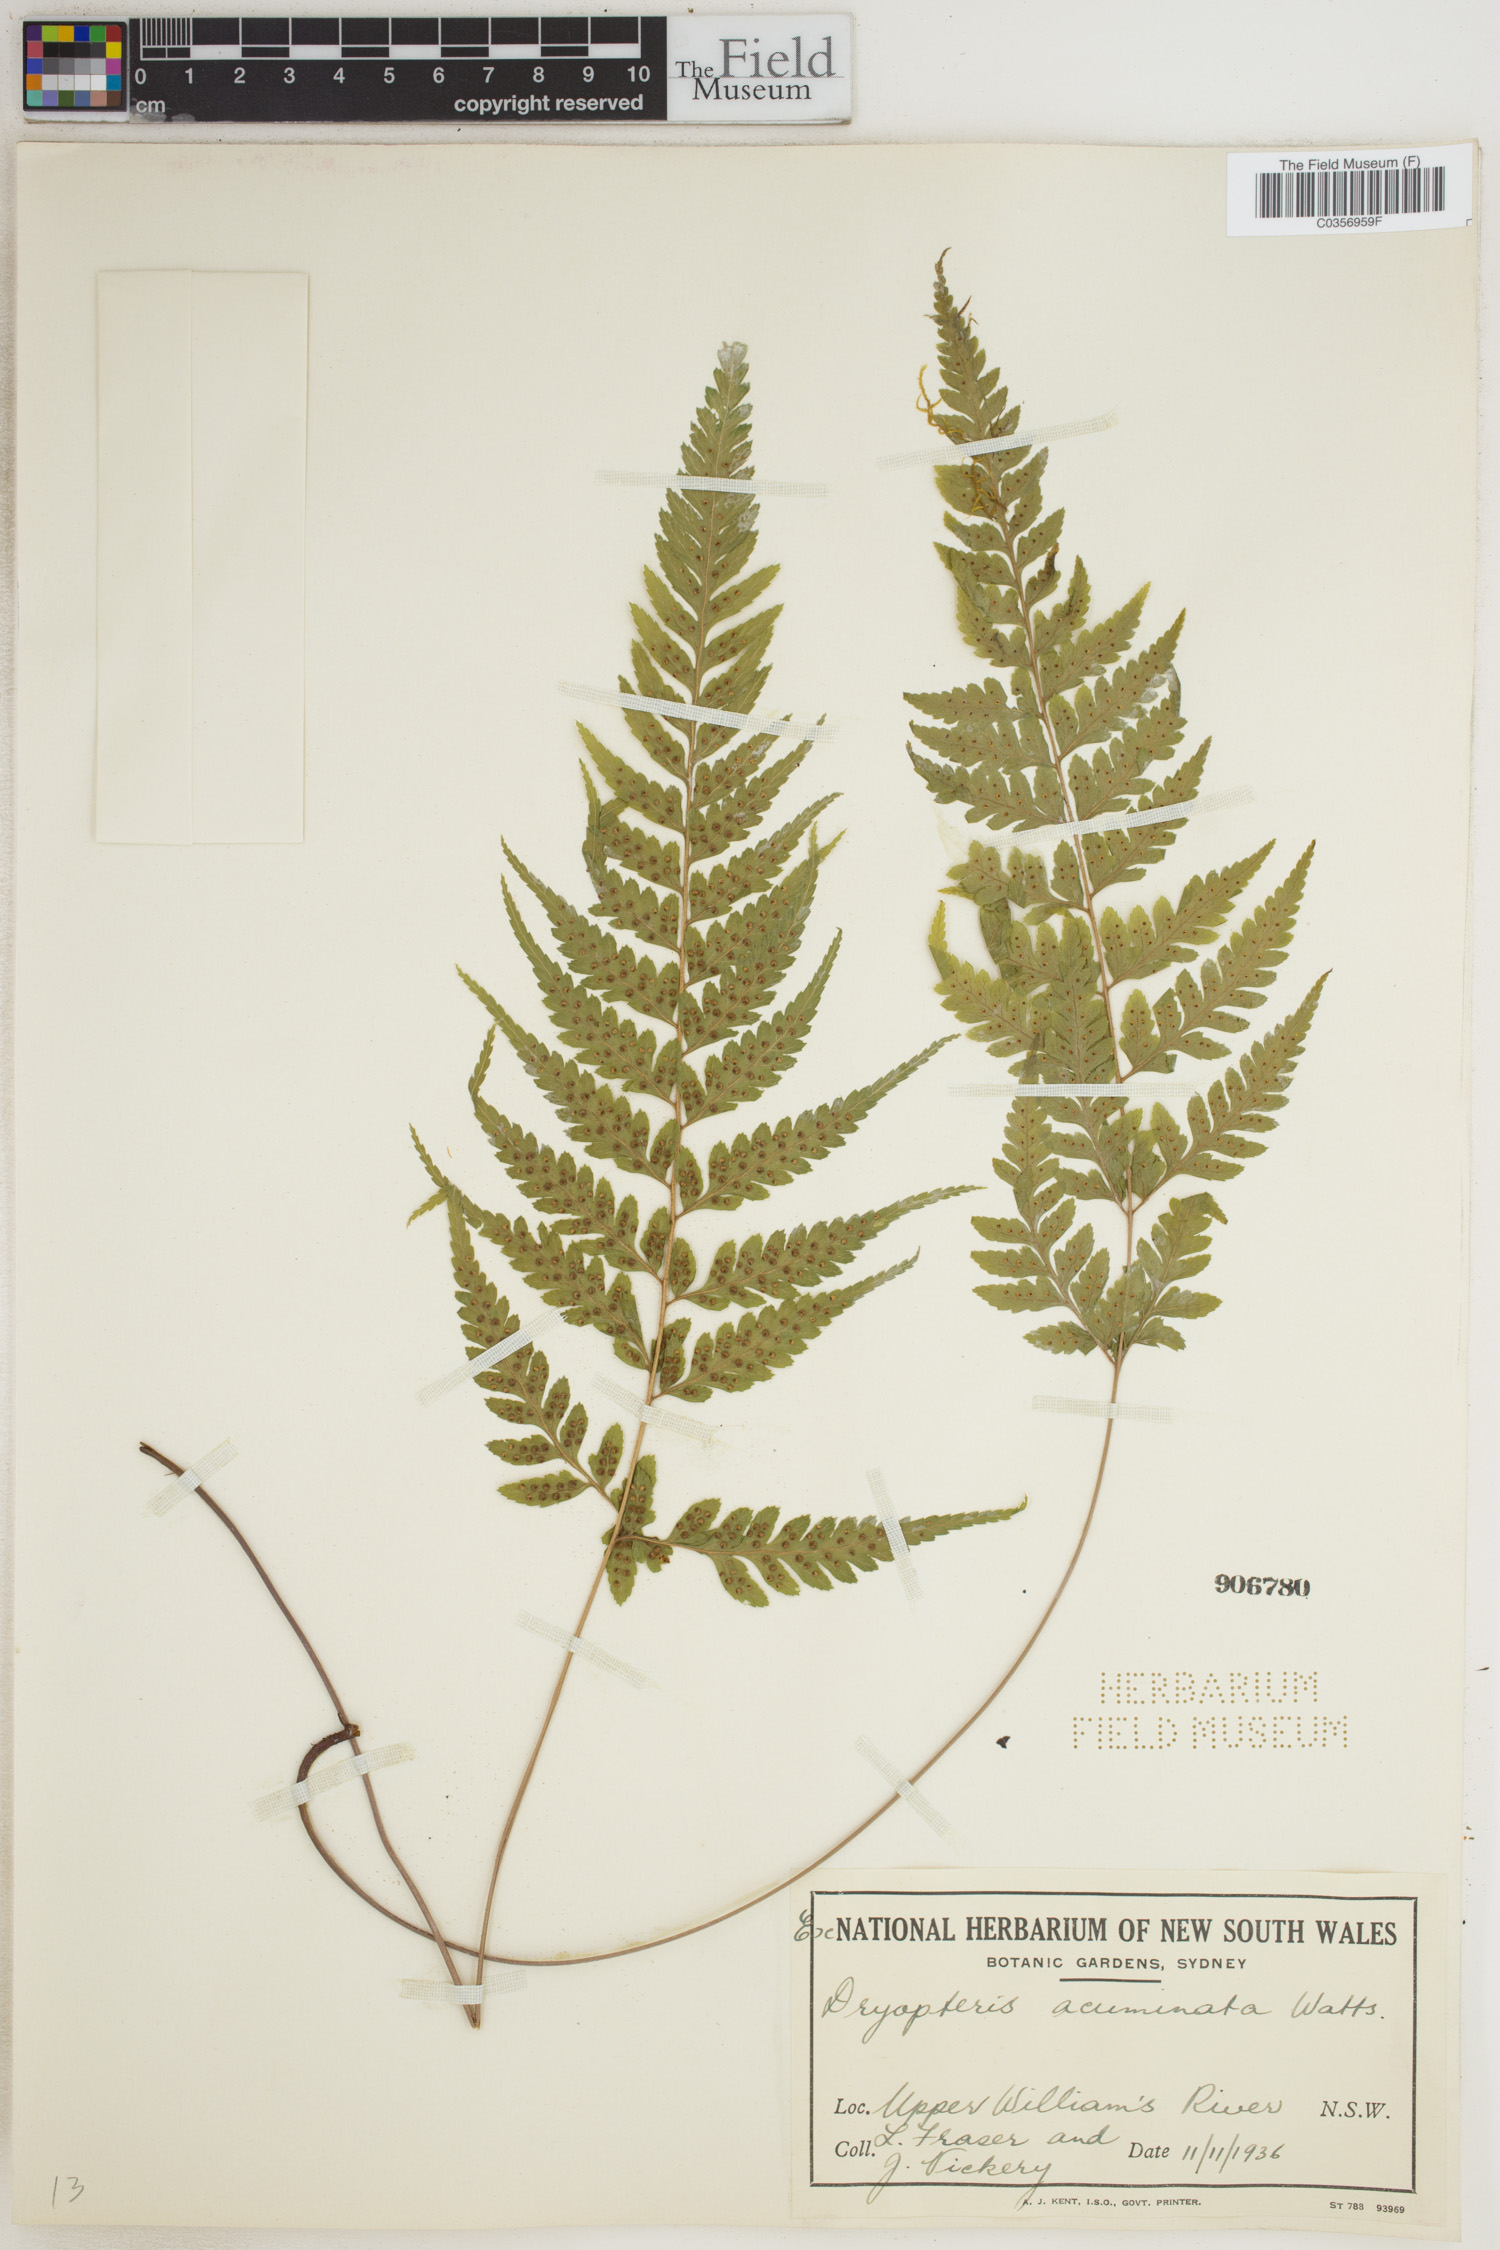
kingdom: Plantae
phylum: Tracheophyta
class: Polypodiopsida
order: Polypodiales
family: Thelypteridaceae
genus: Christella
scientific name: Christella acuminata
